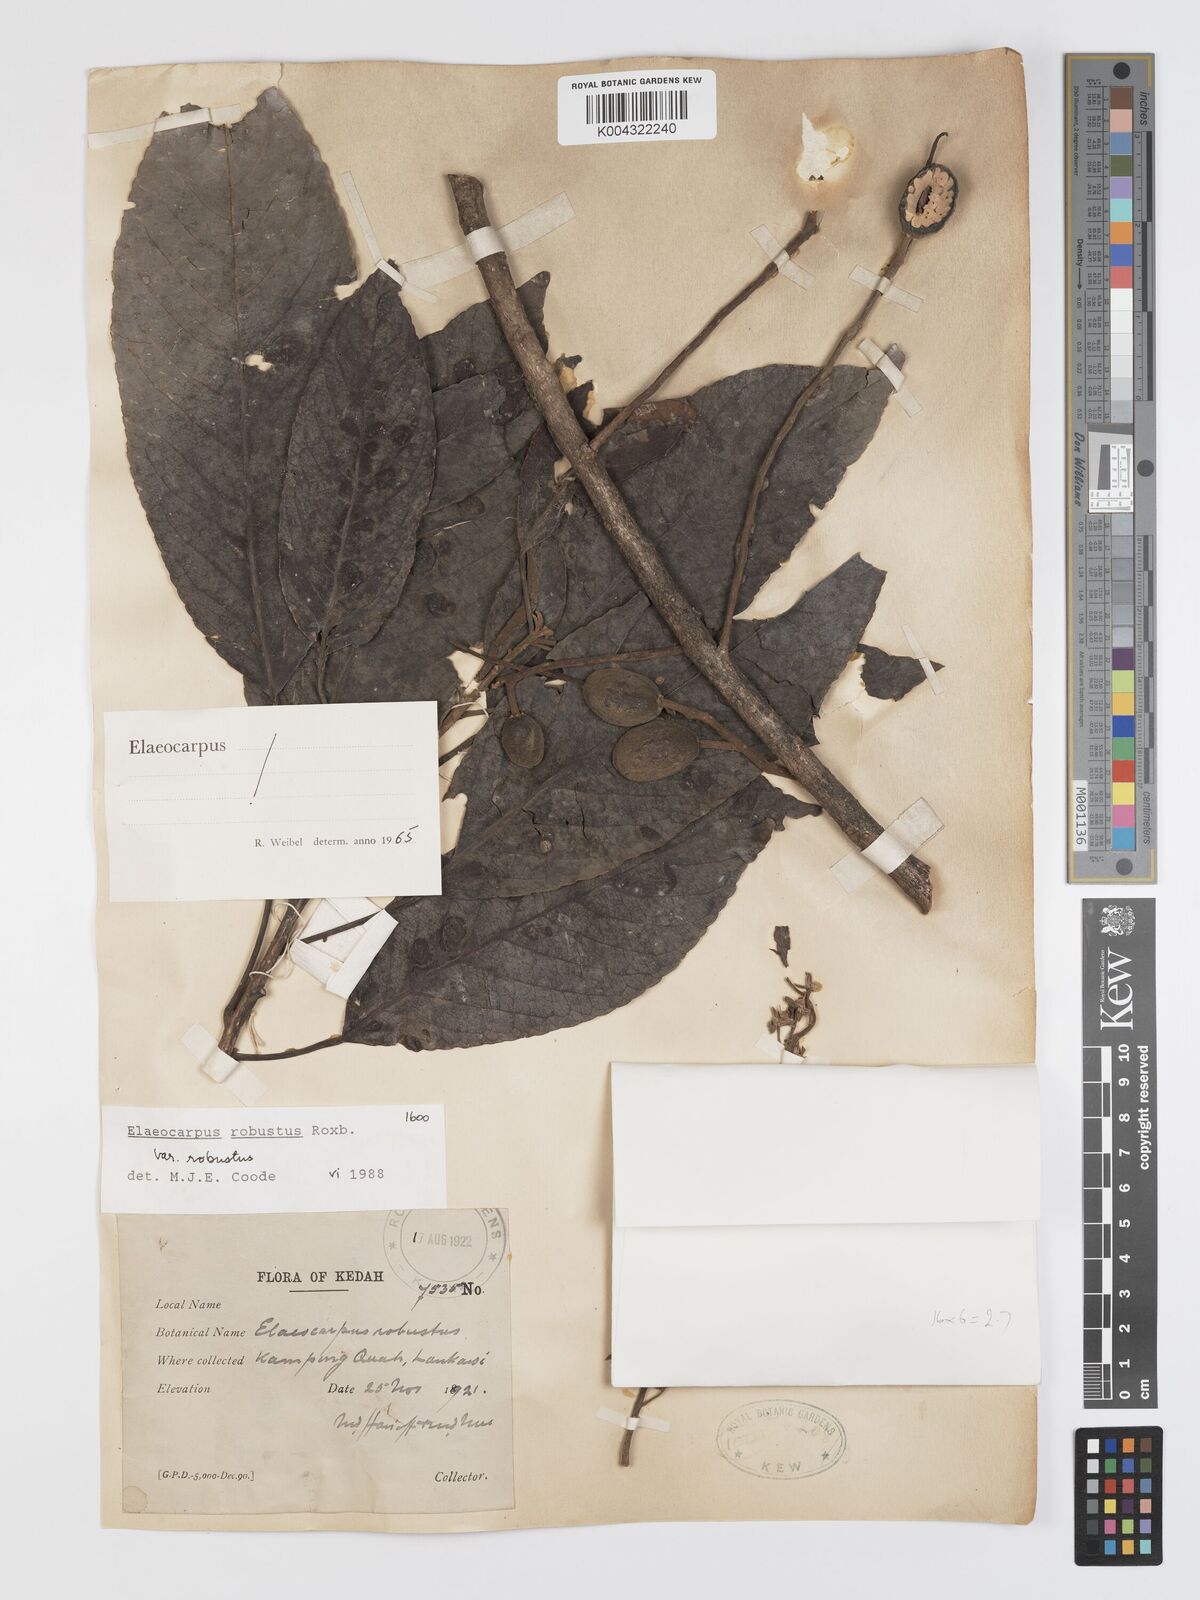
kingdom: Plantae
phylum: Tracheophyta
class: Magnoliopsida
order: Oxalidales
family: Elaeocarpaceae
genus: Elaeocarpus
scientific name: Elaeocarpus robustus
